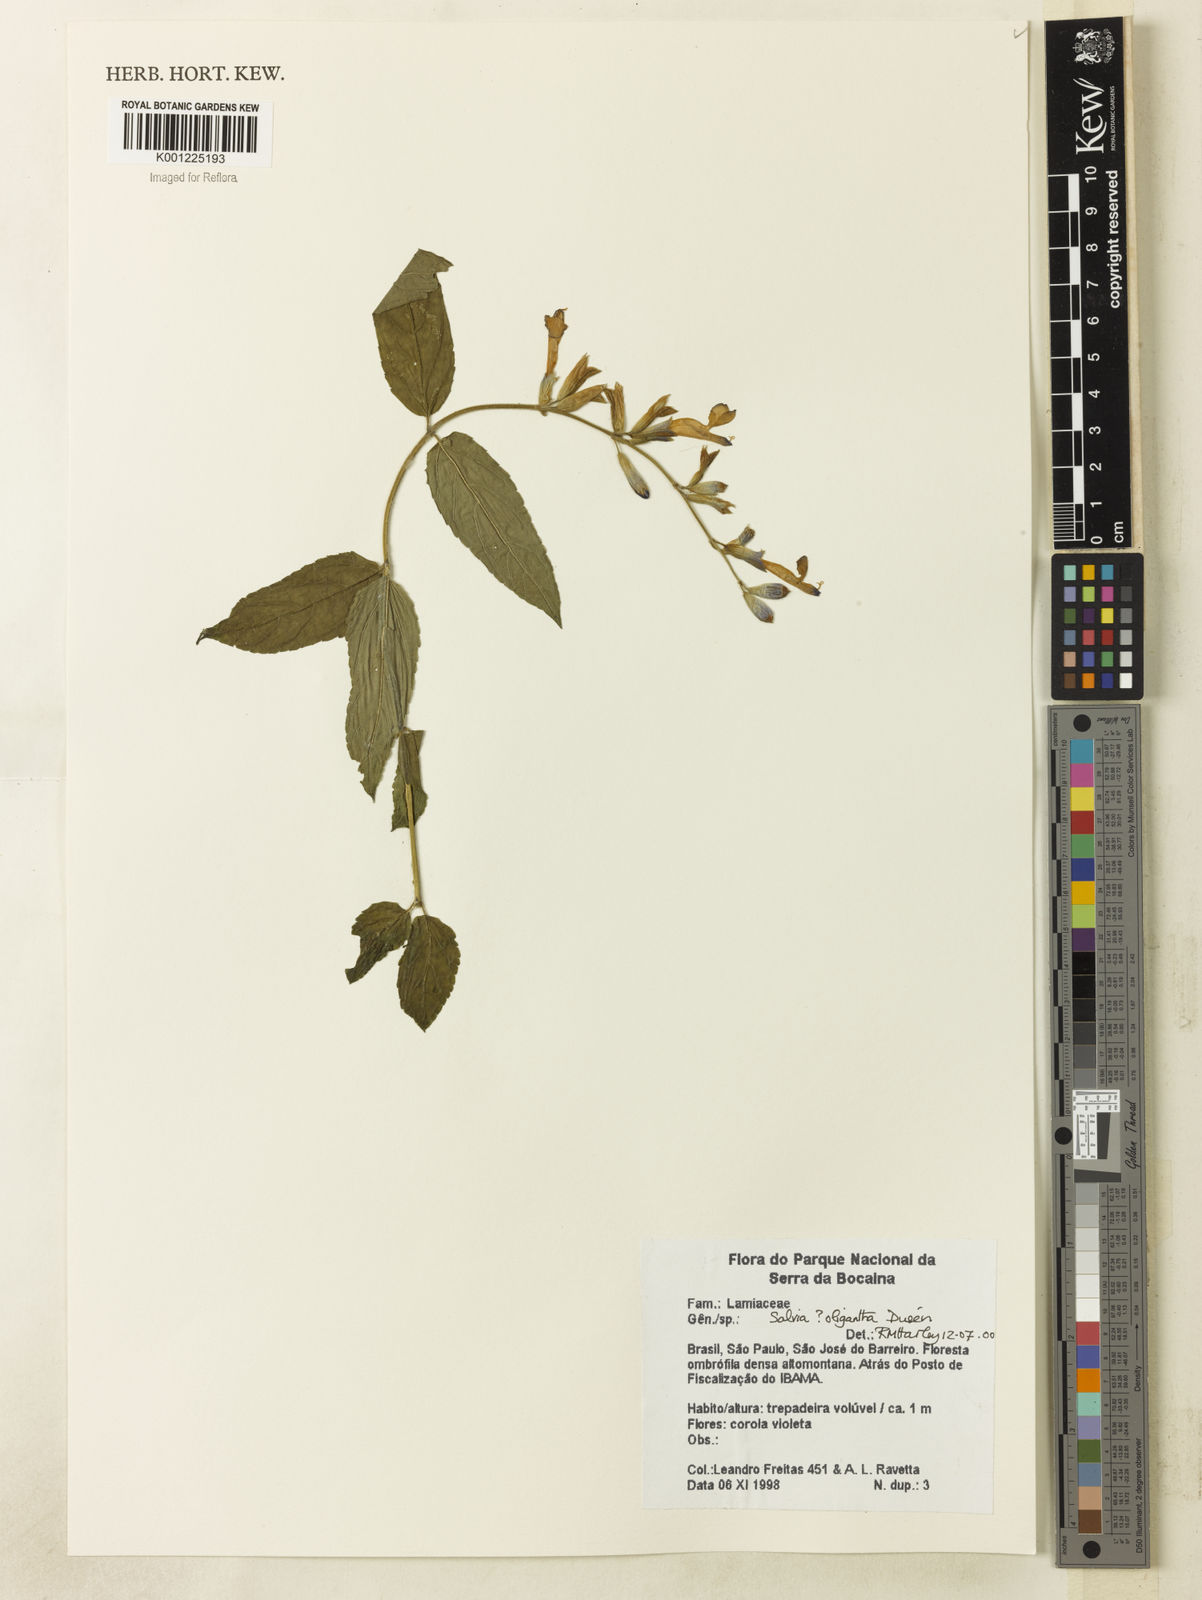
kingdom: Plantae
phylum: Tracheophyta
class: Magnoliopsida
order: Lamiales
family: Lamiaceae
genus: Salvia
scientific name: Salvia
